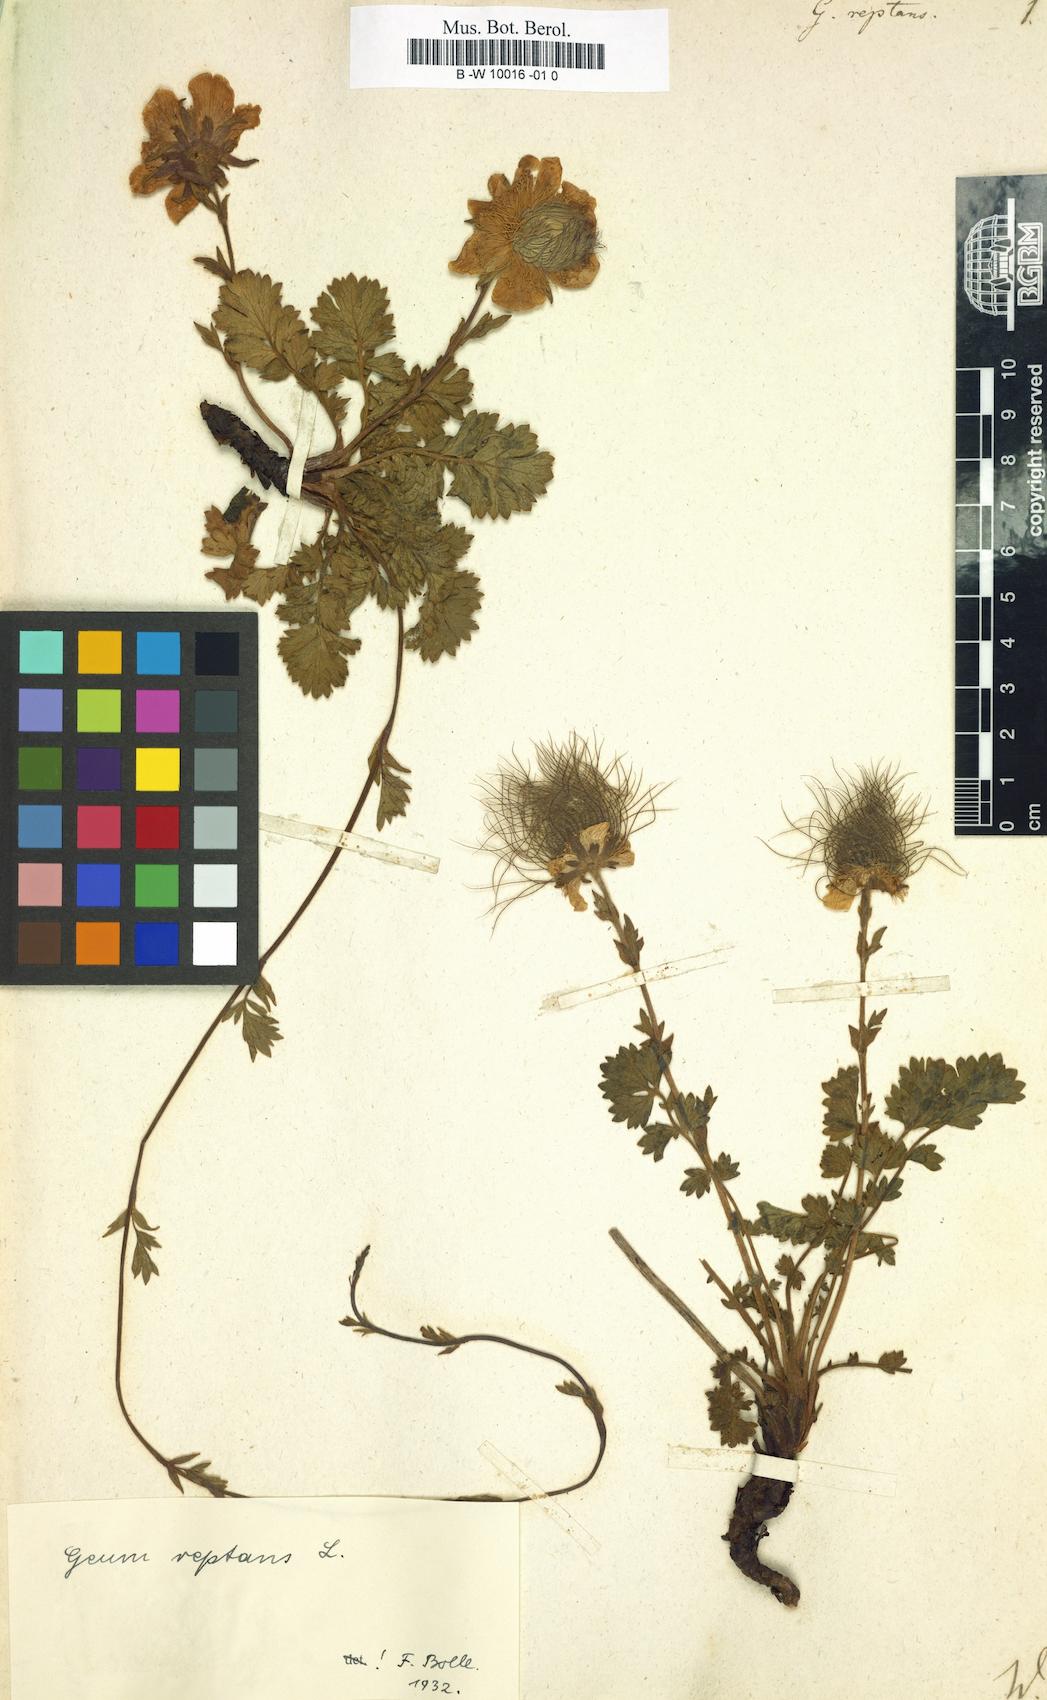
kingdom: Plantae
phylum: Tracheophyta
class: Magnoliopsida
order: Rosales
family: Rosaceae
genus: Geum
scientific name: Geum reptans
